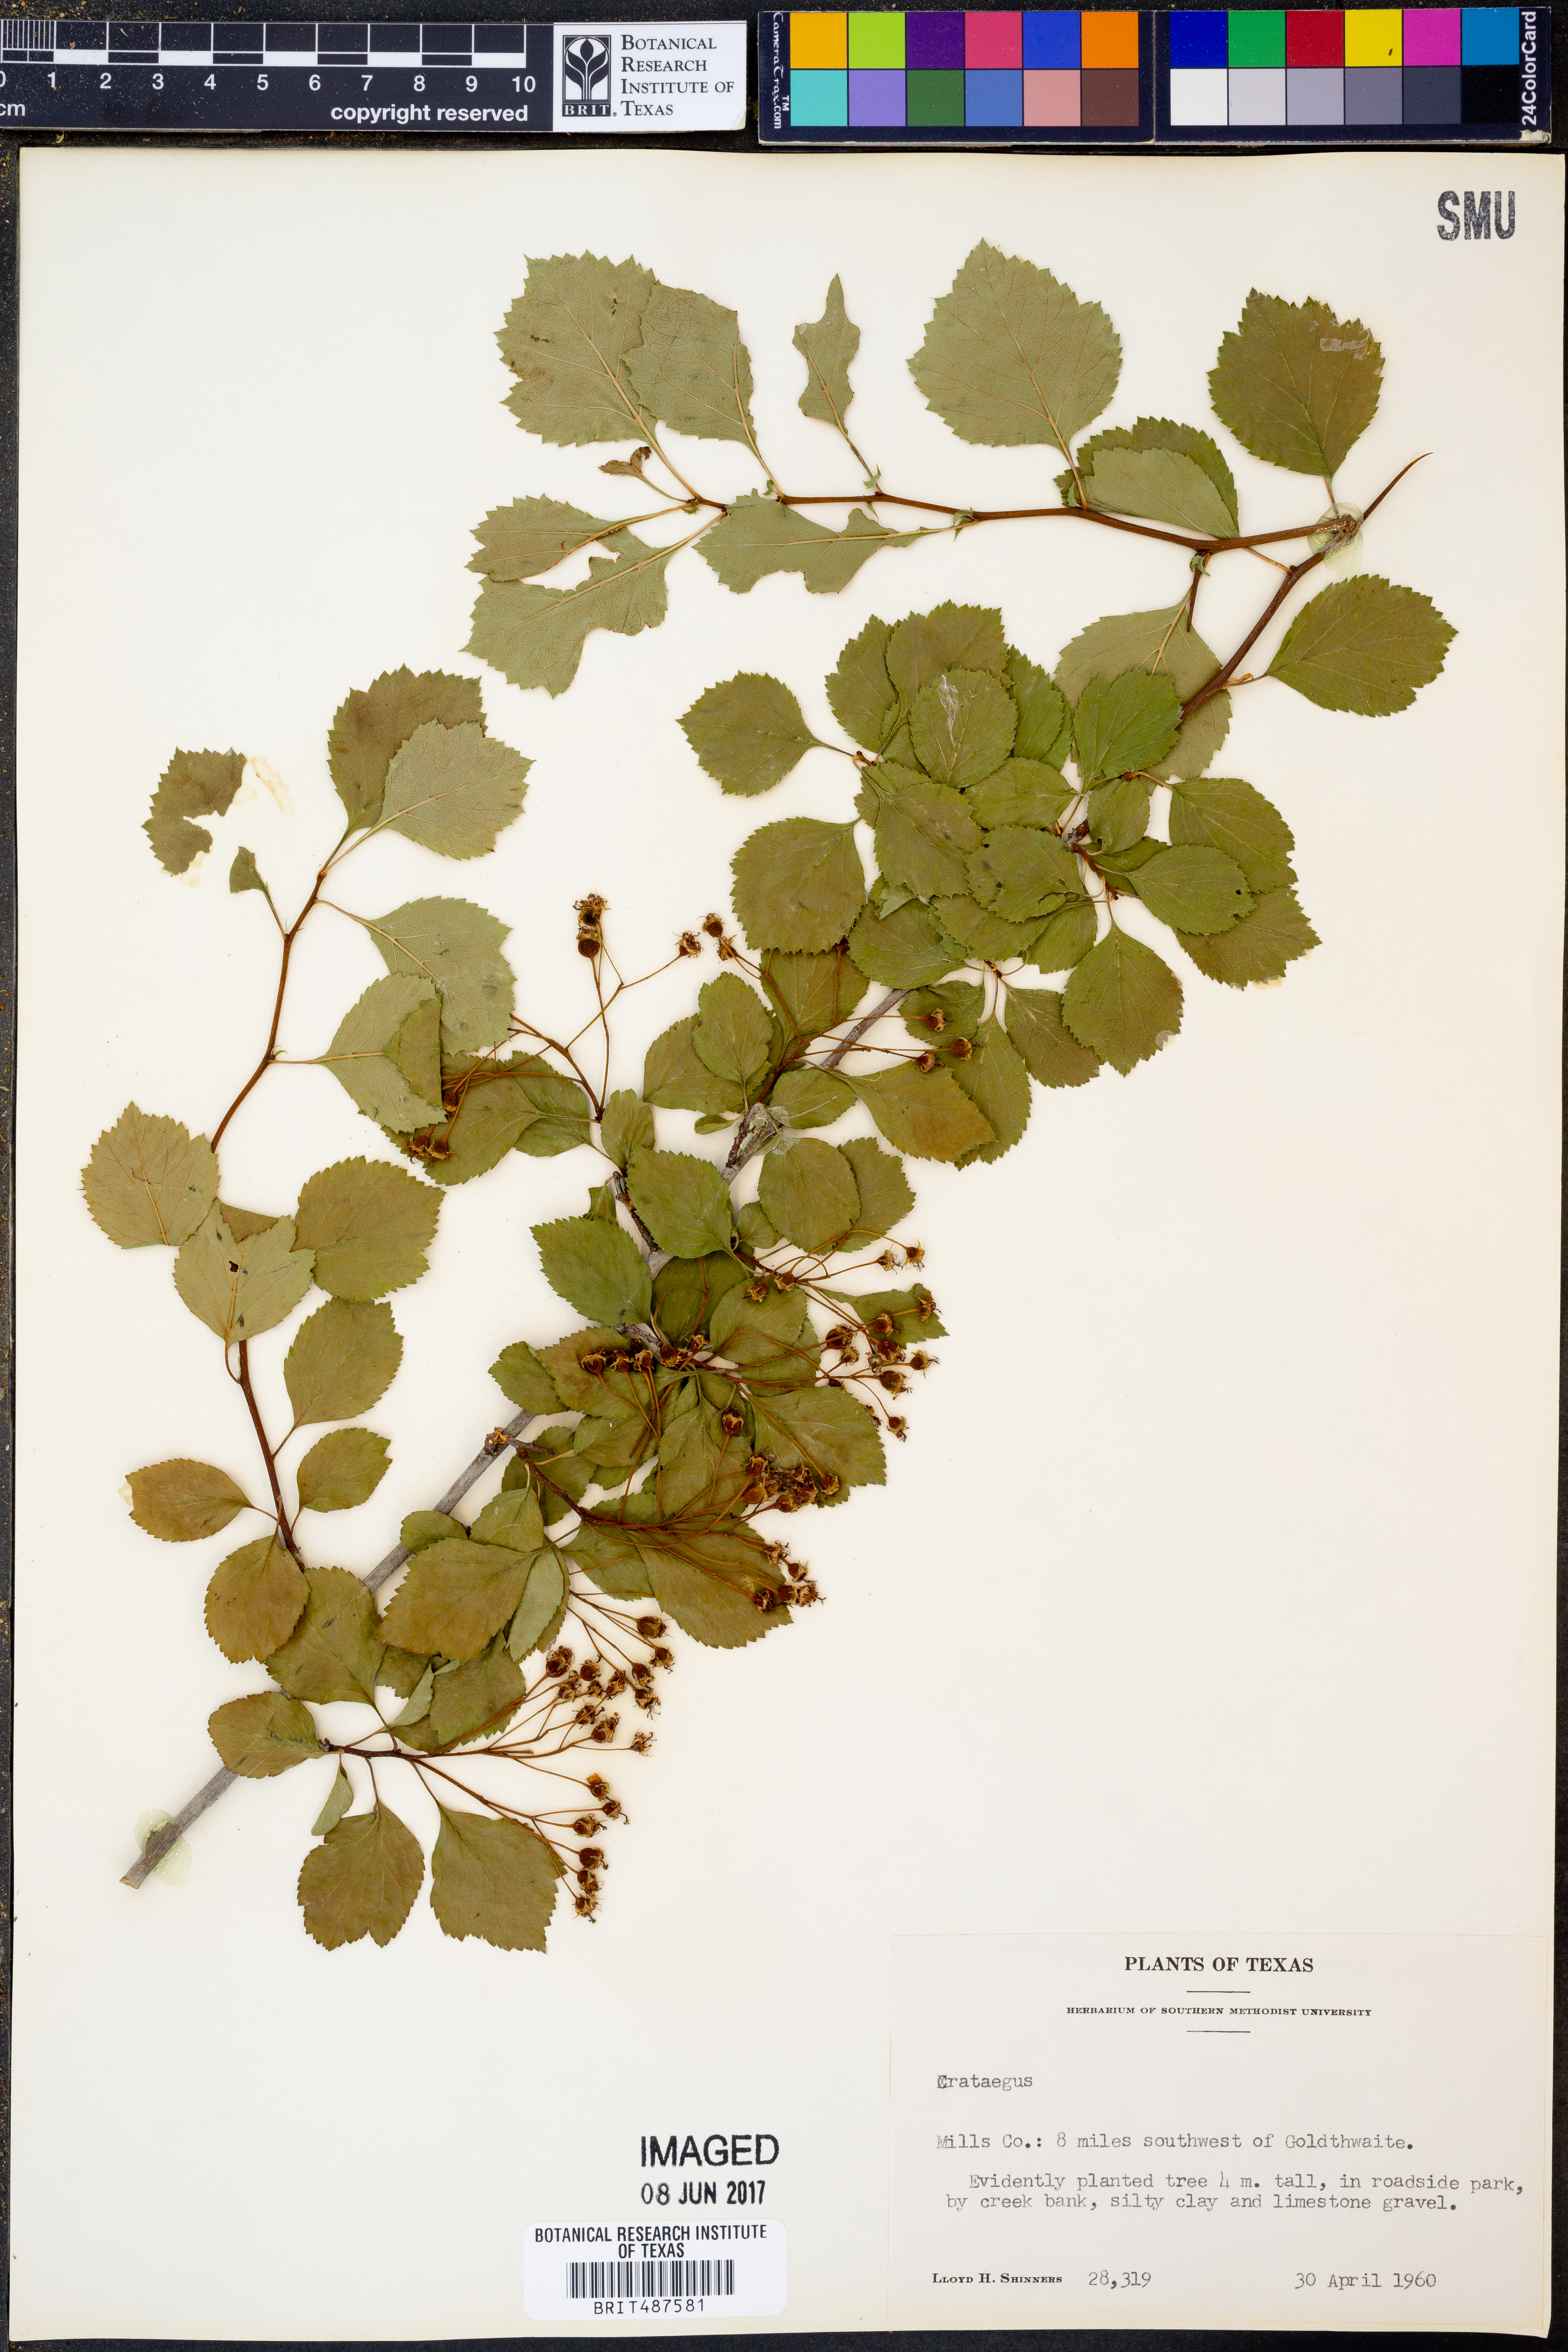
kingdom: Plantae
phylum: Tracheophyta
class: Magnoliopsida
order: Rosales
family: Rosaceae
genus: Crataegus
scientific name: Crataegus
